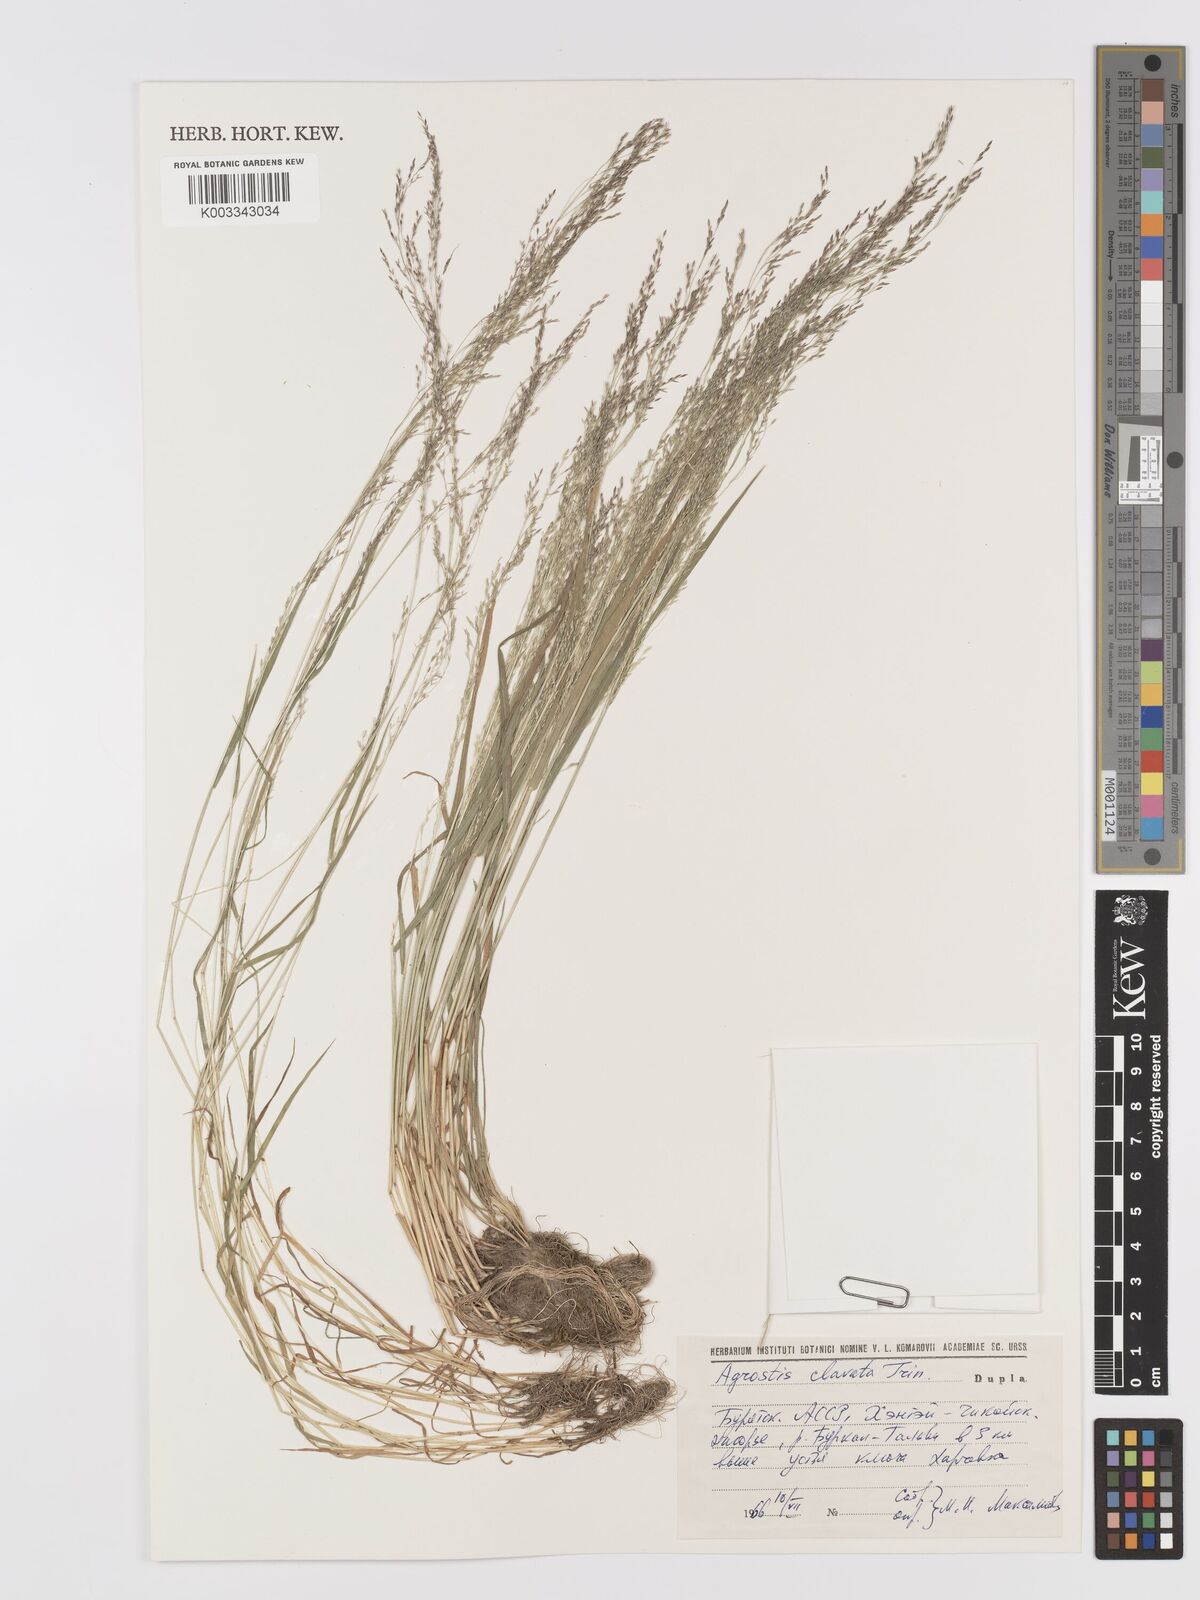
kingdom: Plantae
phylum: Tracheophyta
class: Liliopsida
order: Poales
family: Poaceae
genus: Agrostis
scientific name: Agrostis clavata
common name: Clavate bent
